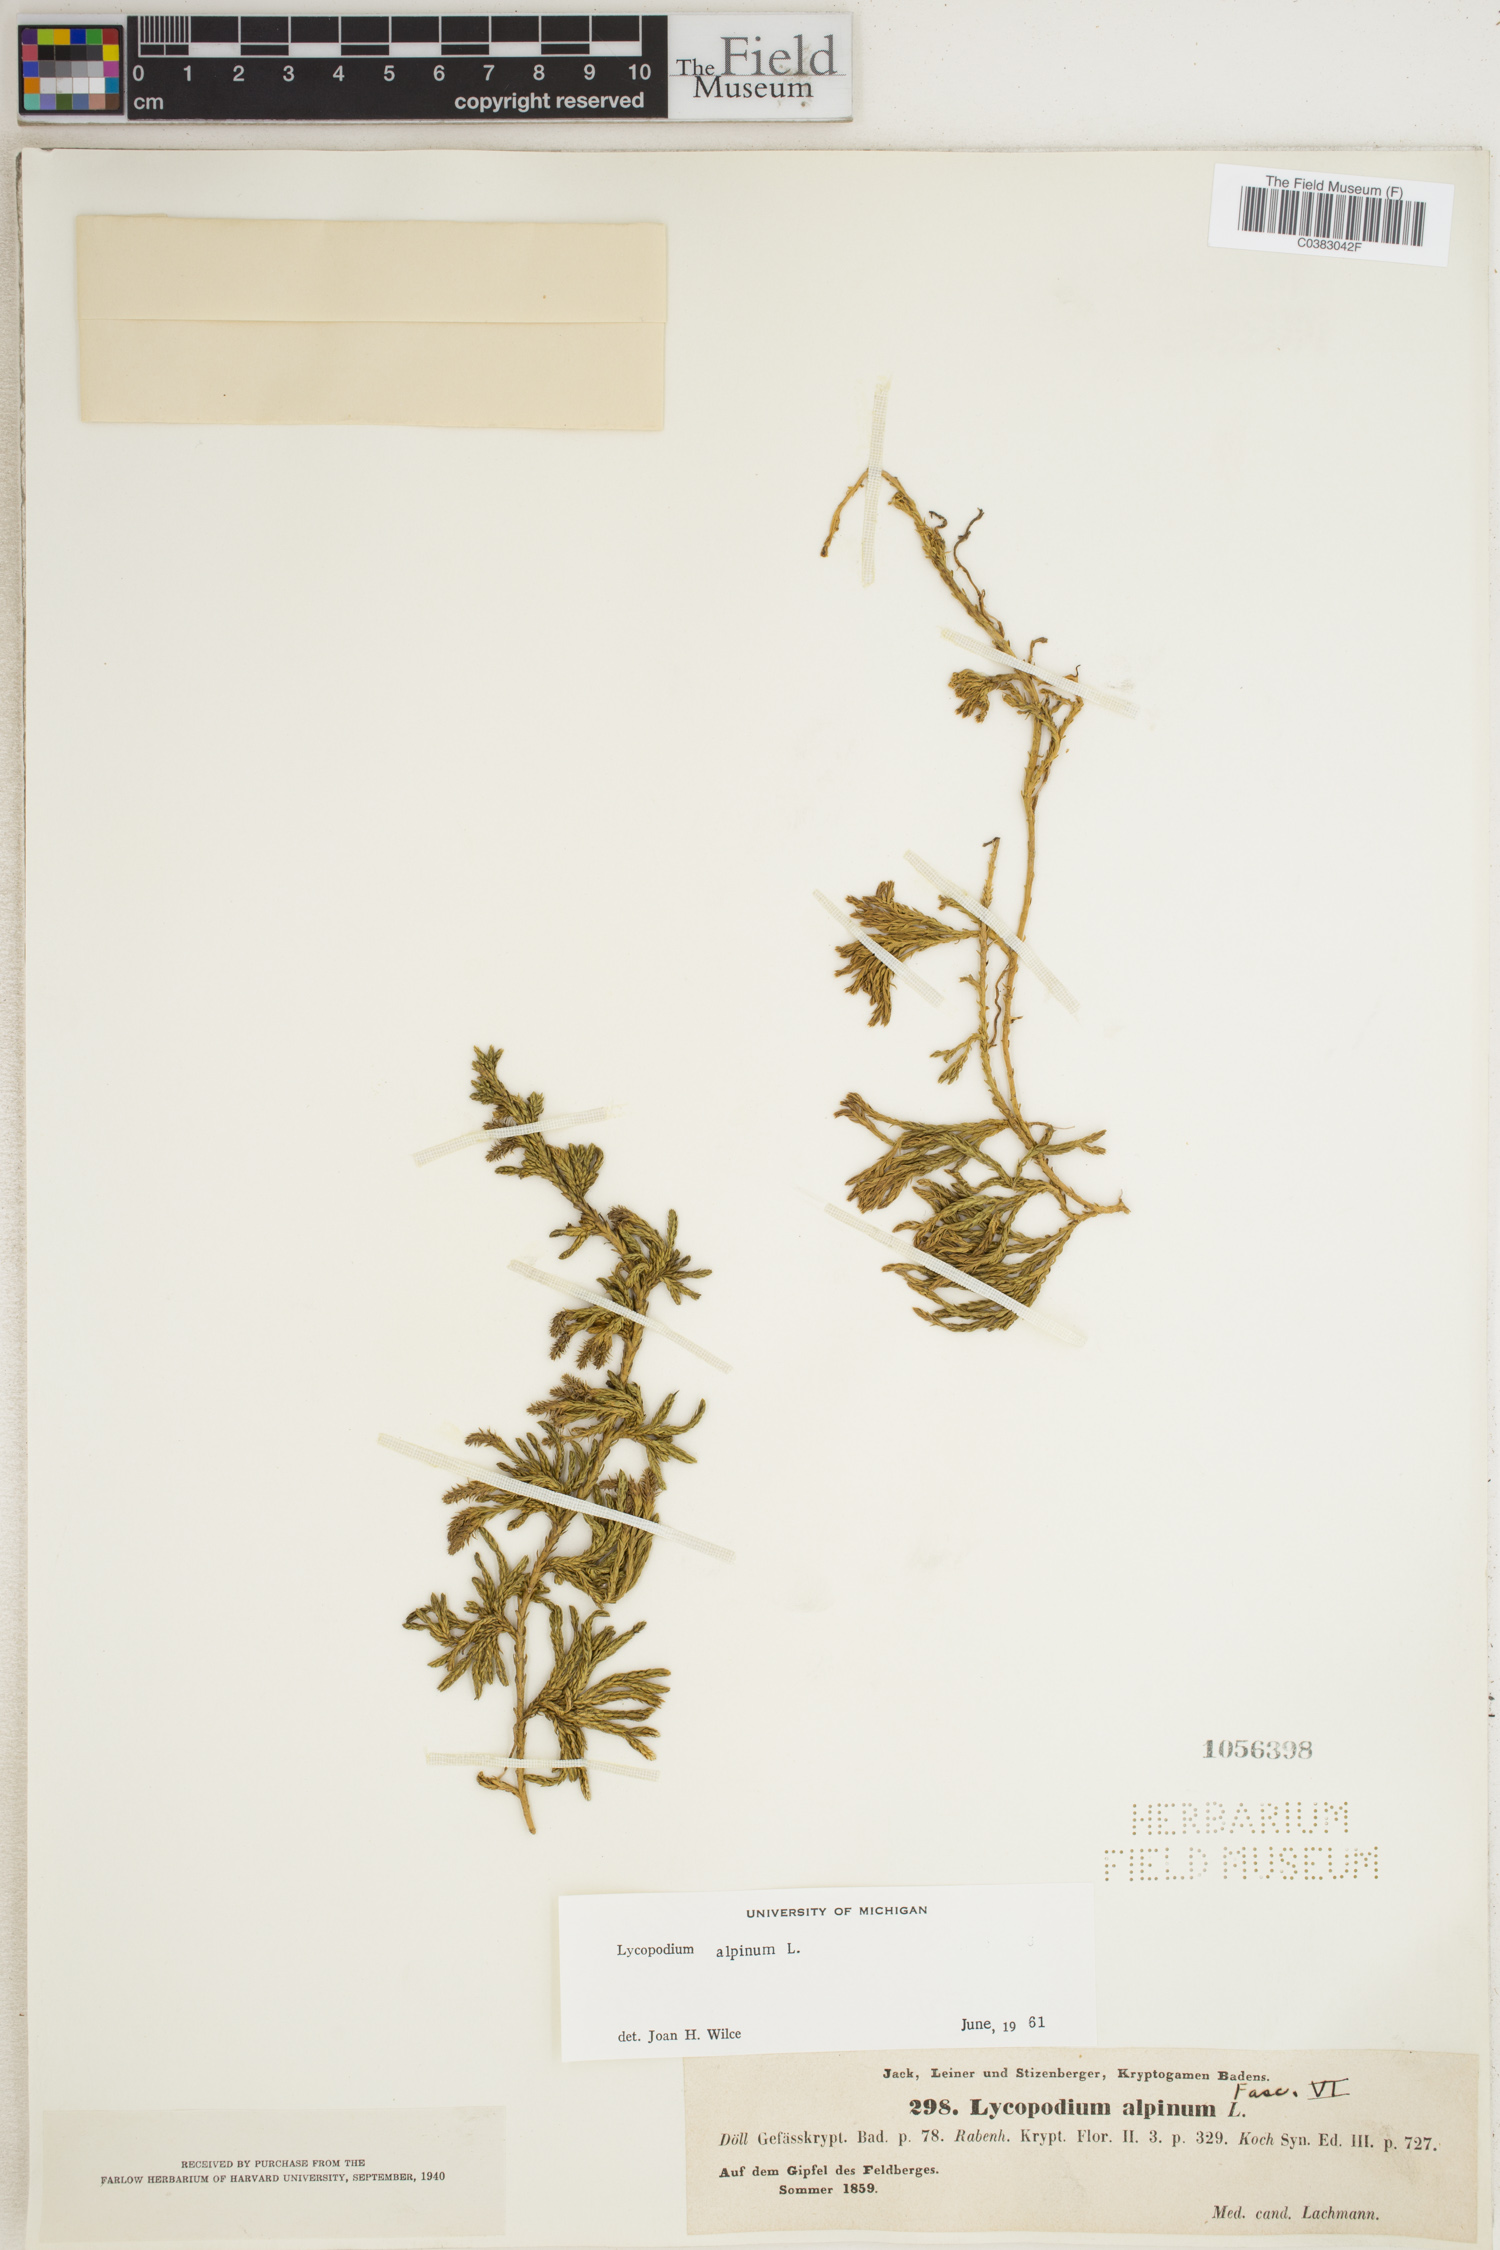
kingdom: Plantae
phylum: Tracheophyta
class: Lycopodiopsida
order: Lycopodiales
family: Lycopodiaceae
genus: Diphasiastrum
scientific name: Diphasiastrum alpinum
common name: Alpine clubmoss
